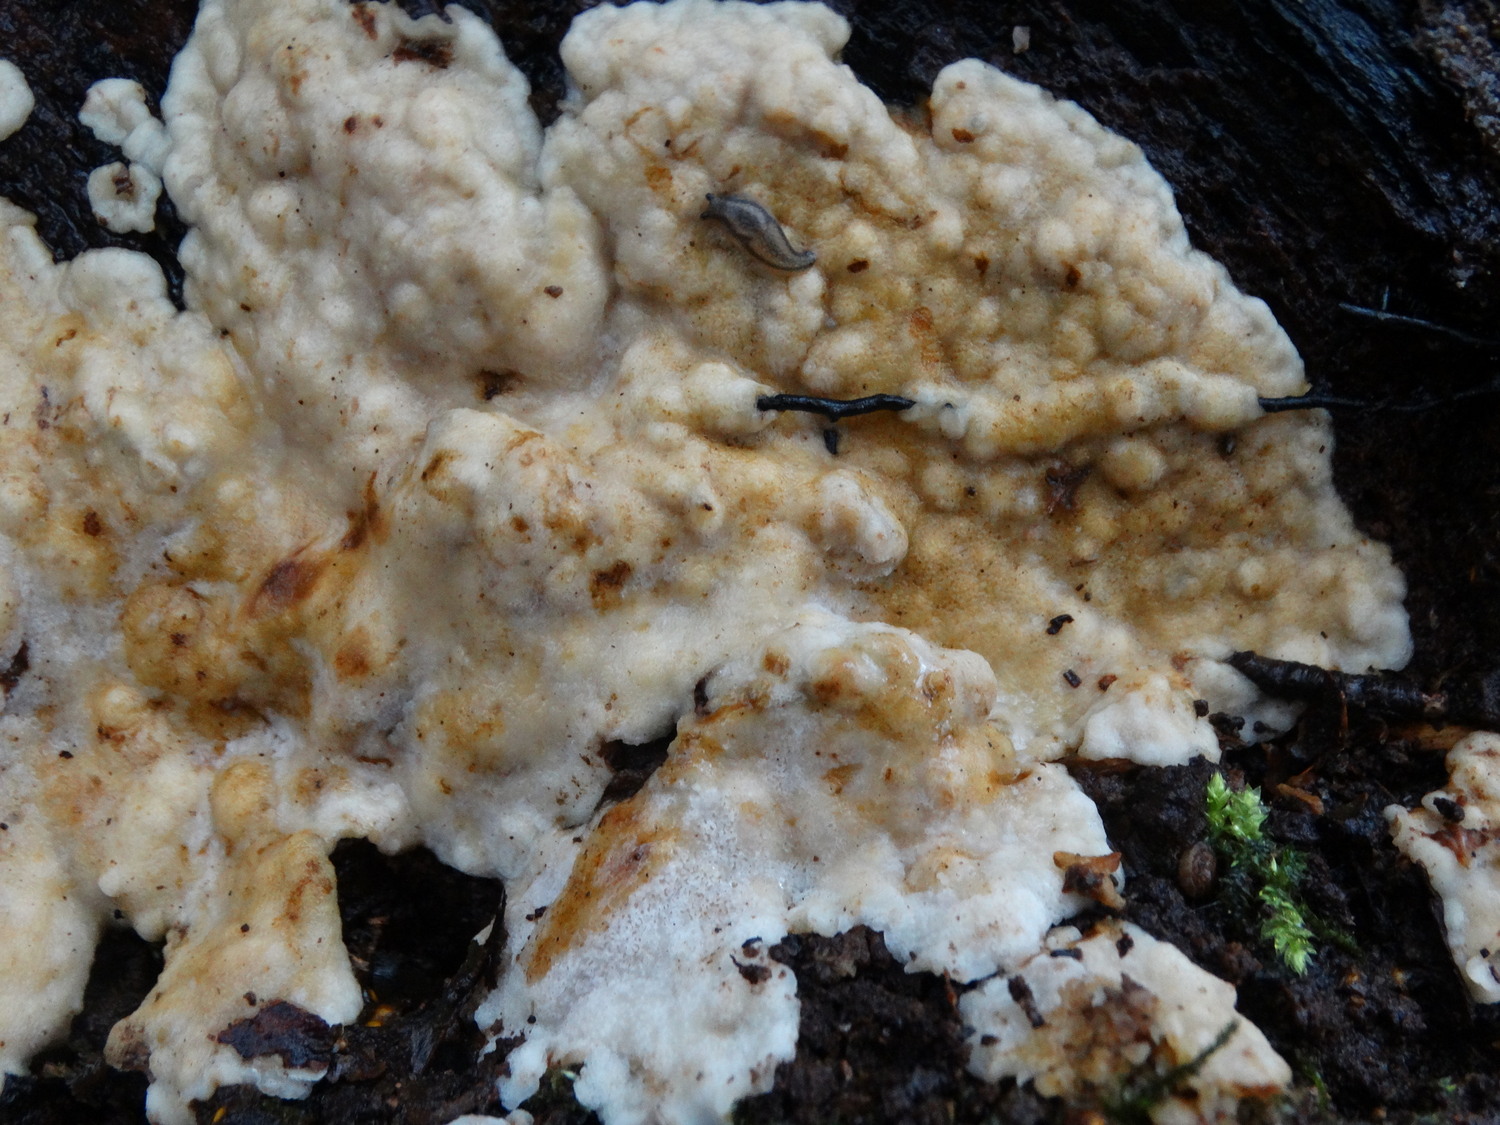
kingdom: Fungi
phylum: Basidiomycota
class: Agaricomycetes
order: Polyporales
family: Meripilaceae
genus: Rigidoporus
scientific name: Rigidoporus sanguinolentus
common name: blod-skorpeporesvamp
